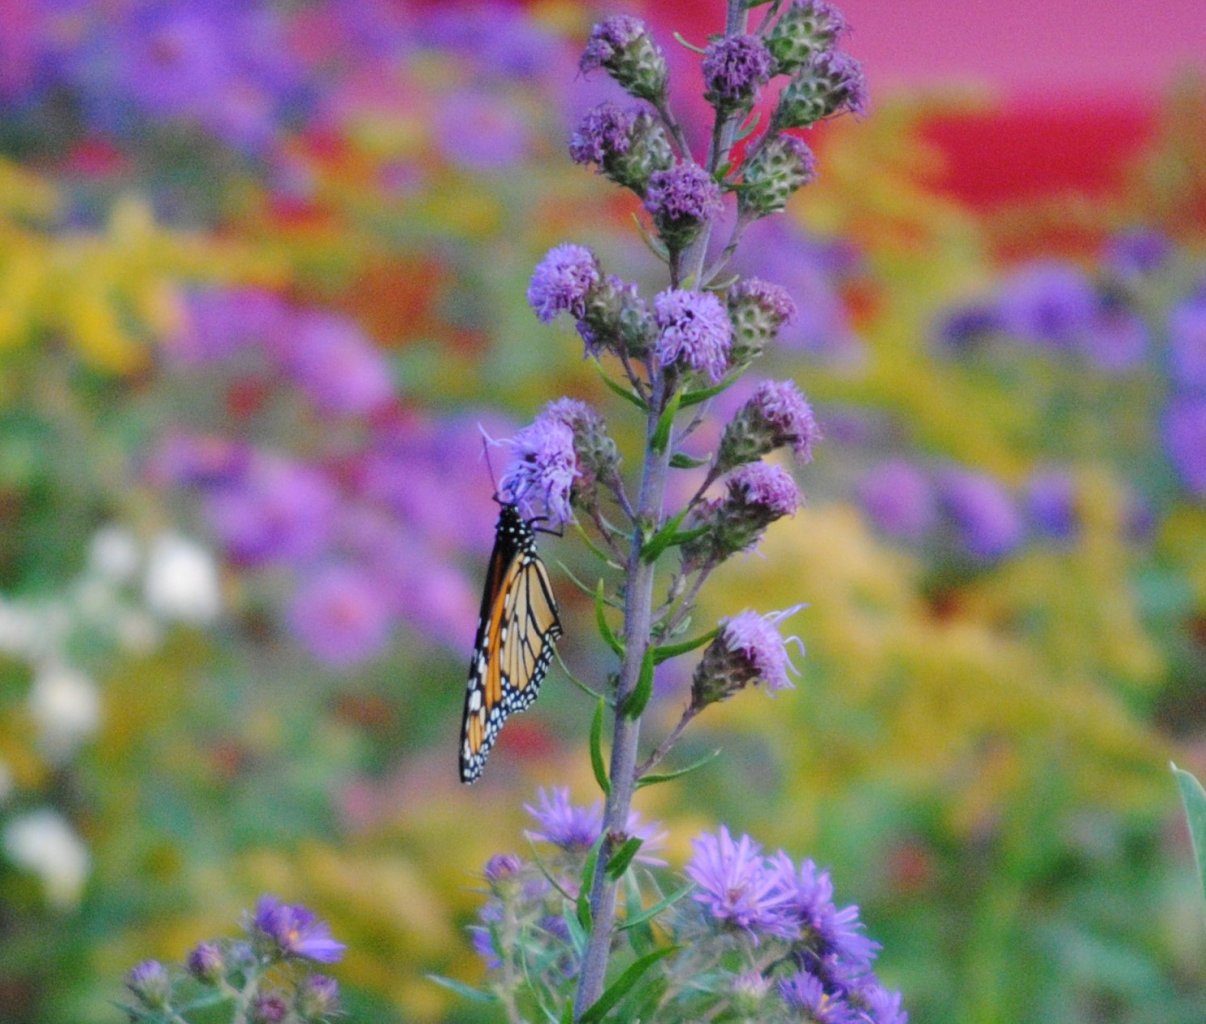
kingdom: Animalia
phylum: Arthropoda
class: Insecta
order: Lepidoptera
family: Nymphalidae
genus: Danaus
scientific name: Danaus plexippus
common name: Monarch
